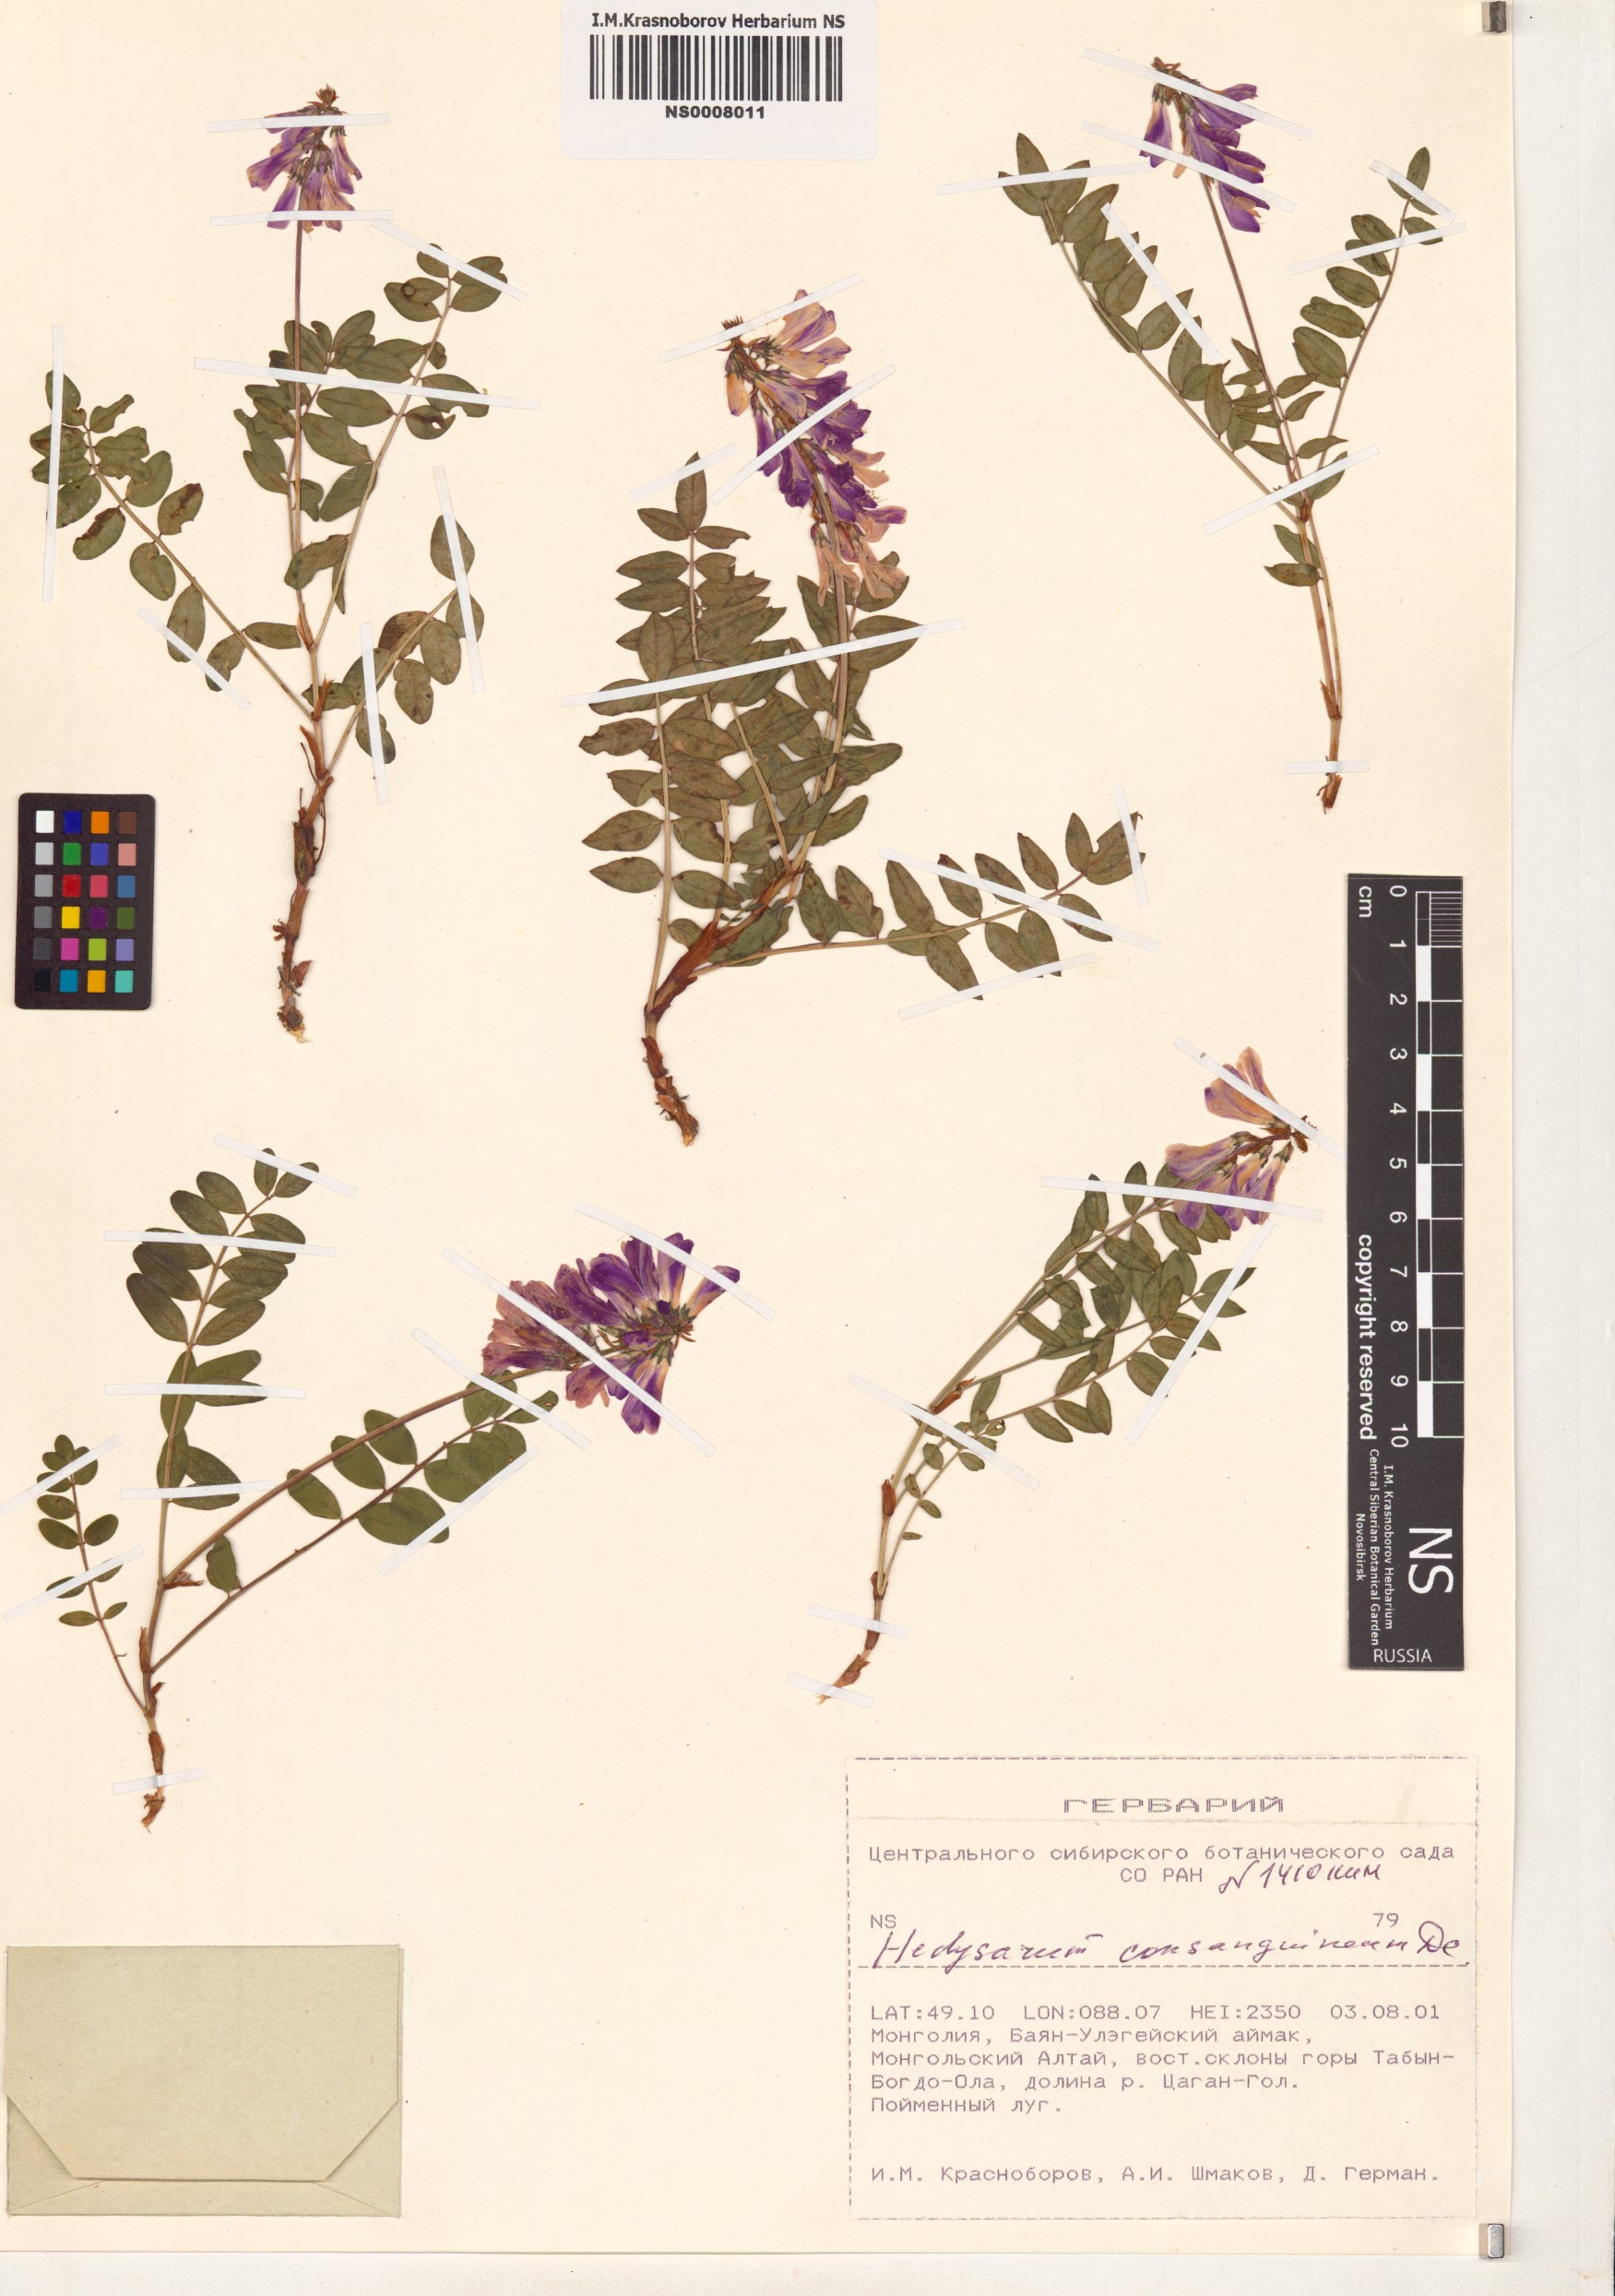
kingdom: Plantae
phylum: Tracheophyta
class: Magnoliopsida
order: Fabales
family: Fabaceae
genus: Hedysarum
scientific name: Hedysarum consanguineum
